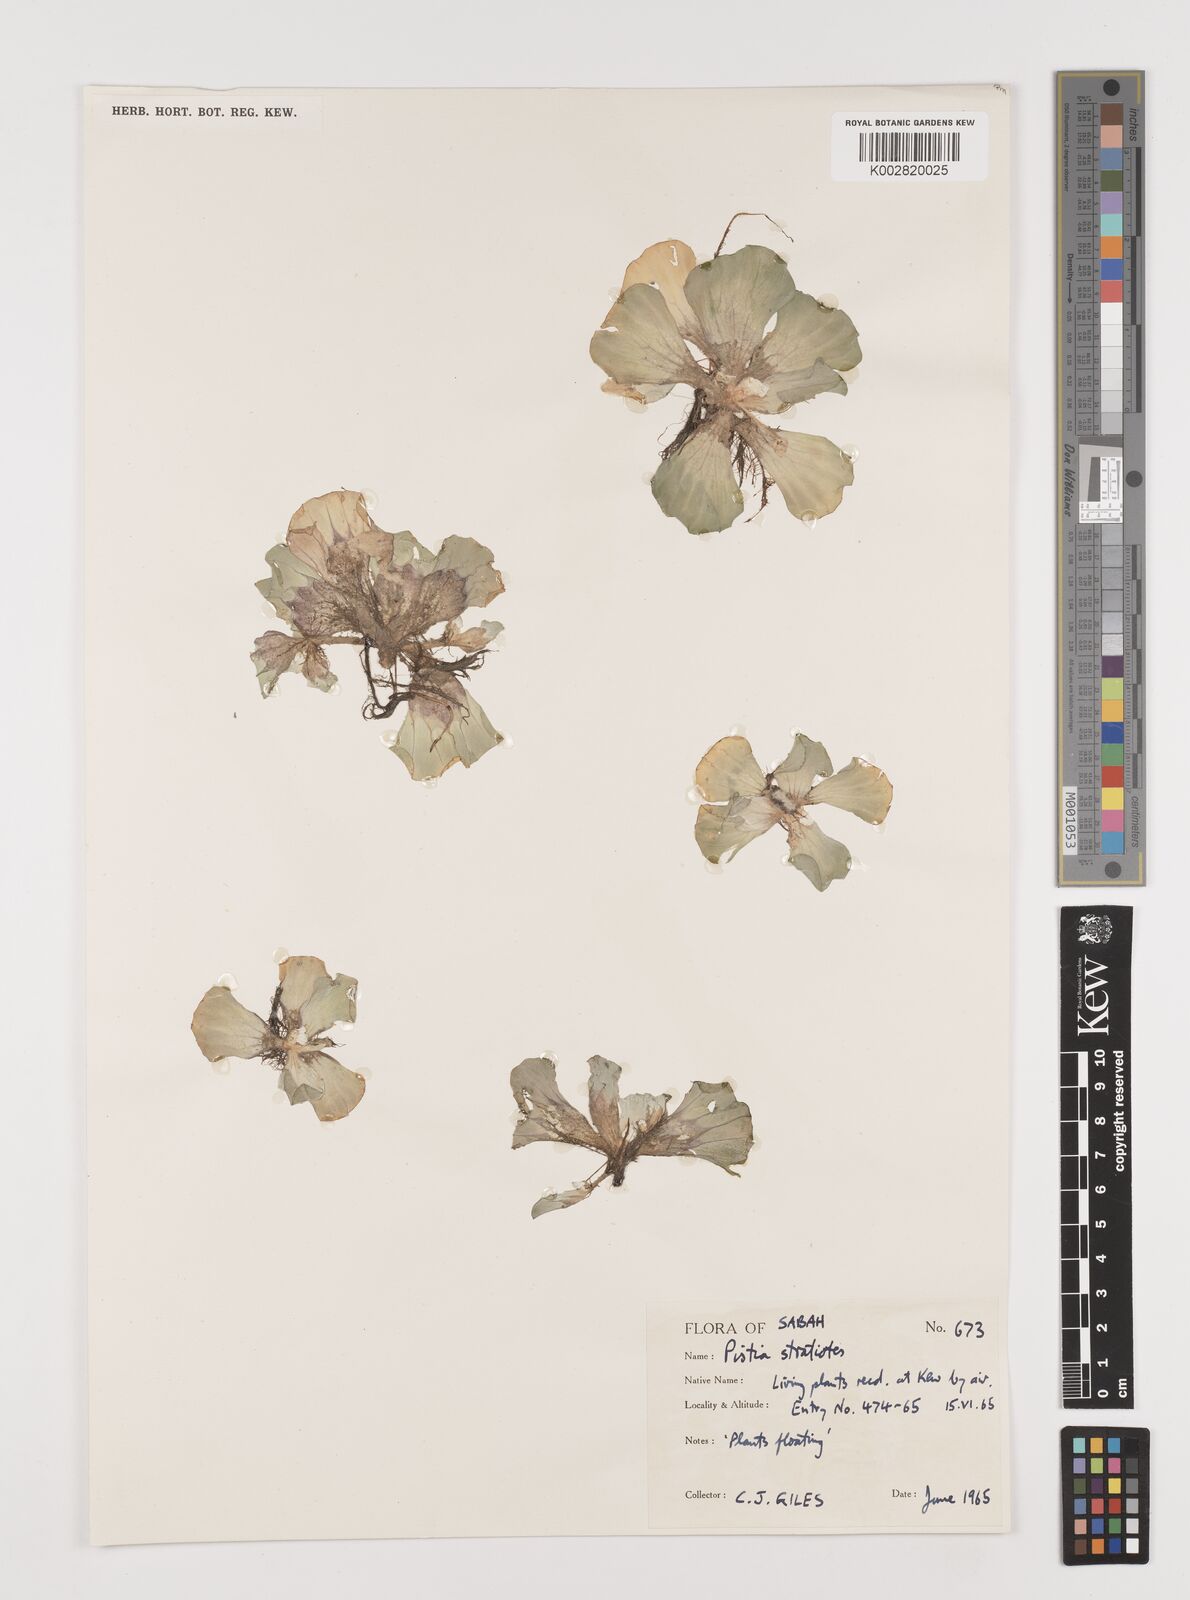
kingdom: Plantae
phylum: Tracheophyta
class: Liliopsida
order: Alismatales
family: Araceae
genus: Pistia
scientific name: Pistia stratiotes
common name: Water lettuce
